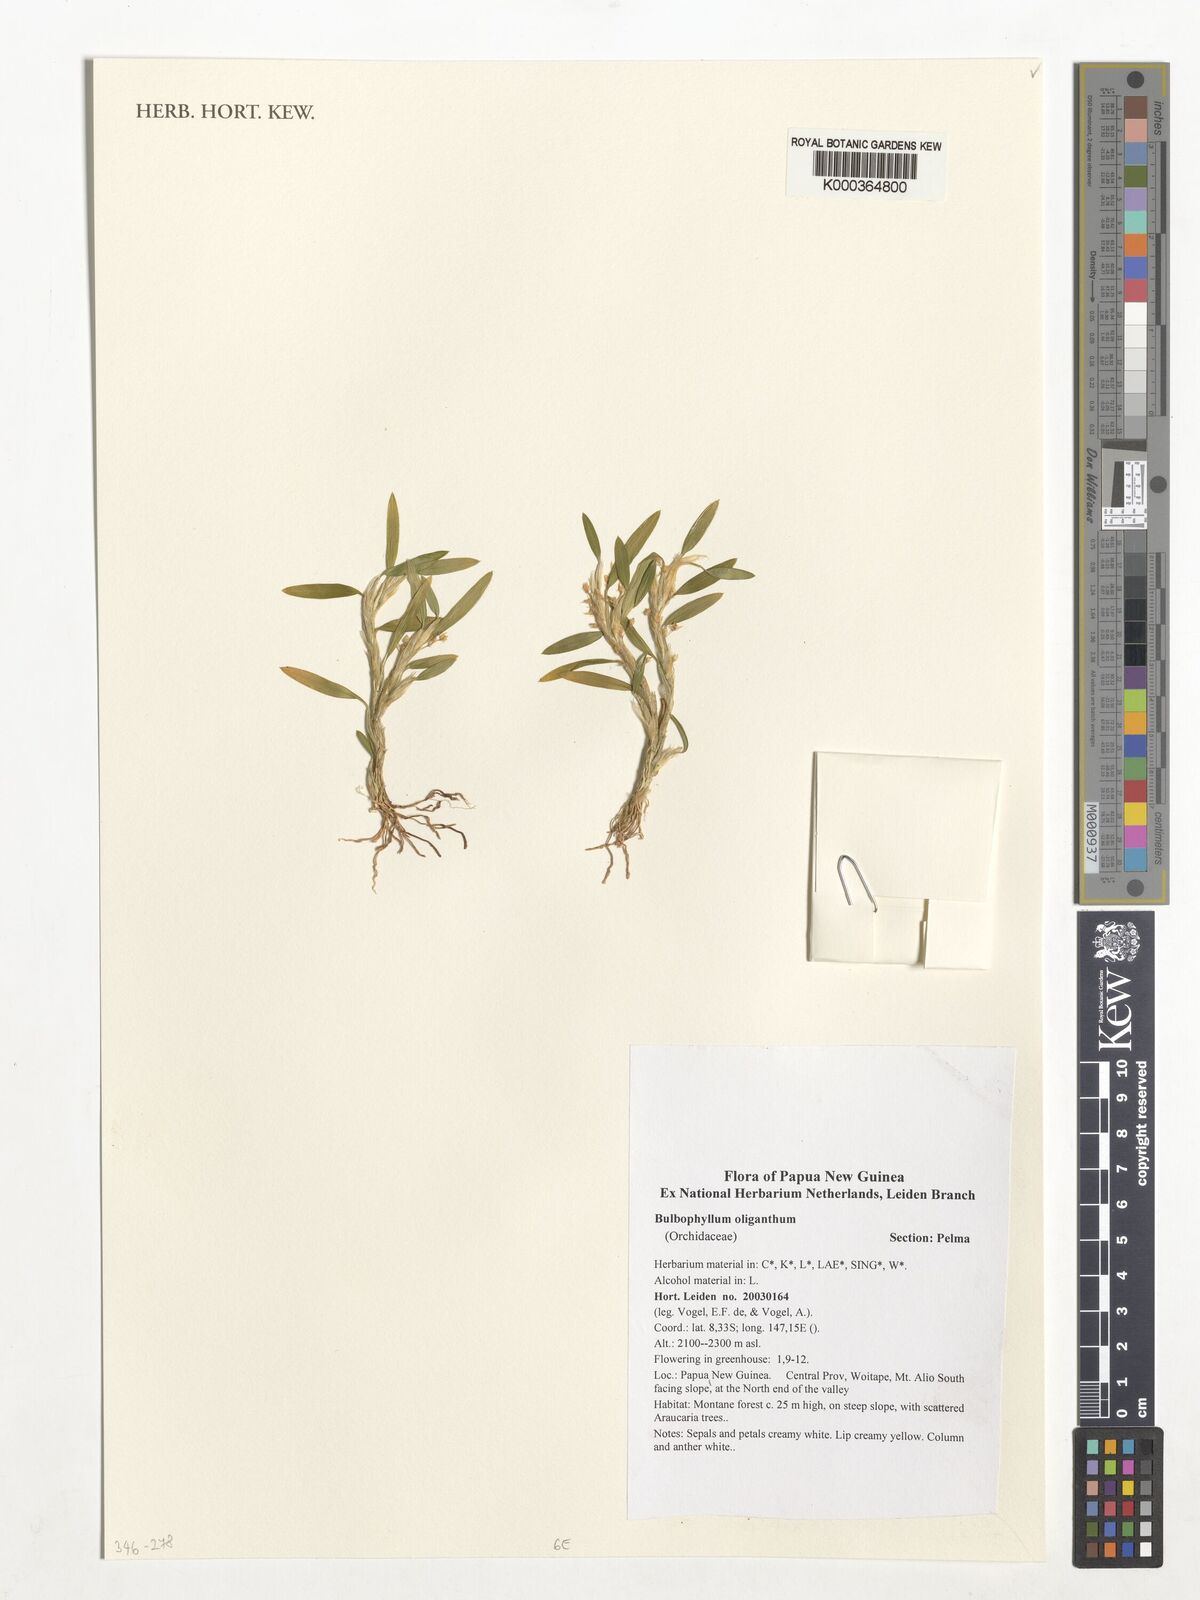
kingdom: Plantae
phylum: Tracheophyta
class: Liliopsida
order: Asparagales
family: Orchidaceae
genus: Bulbophyllum
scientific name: Bulbophyllum oliganthum
